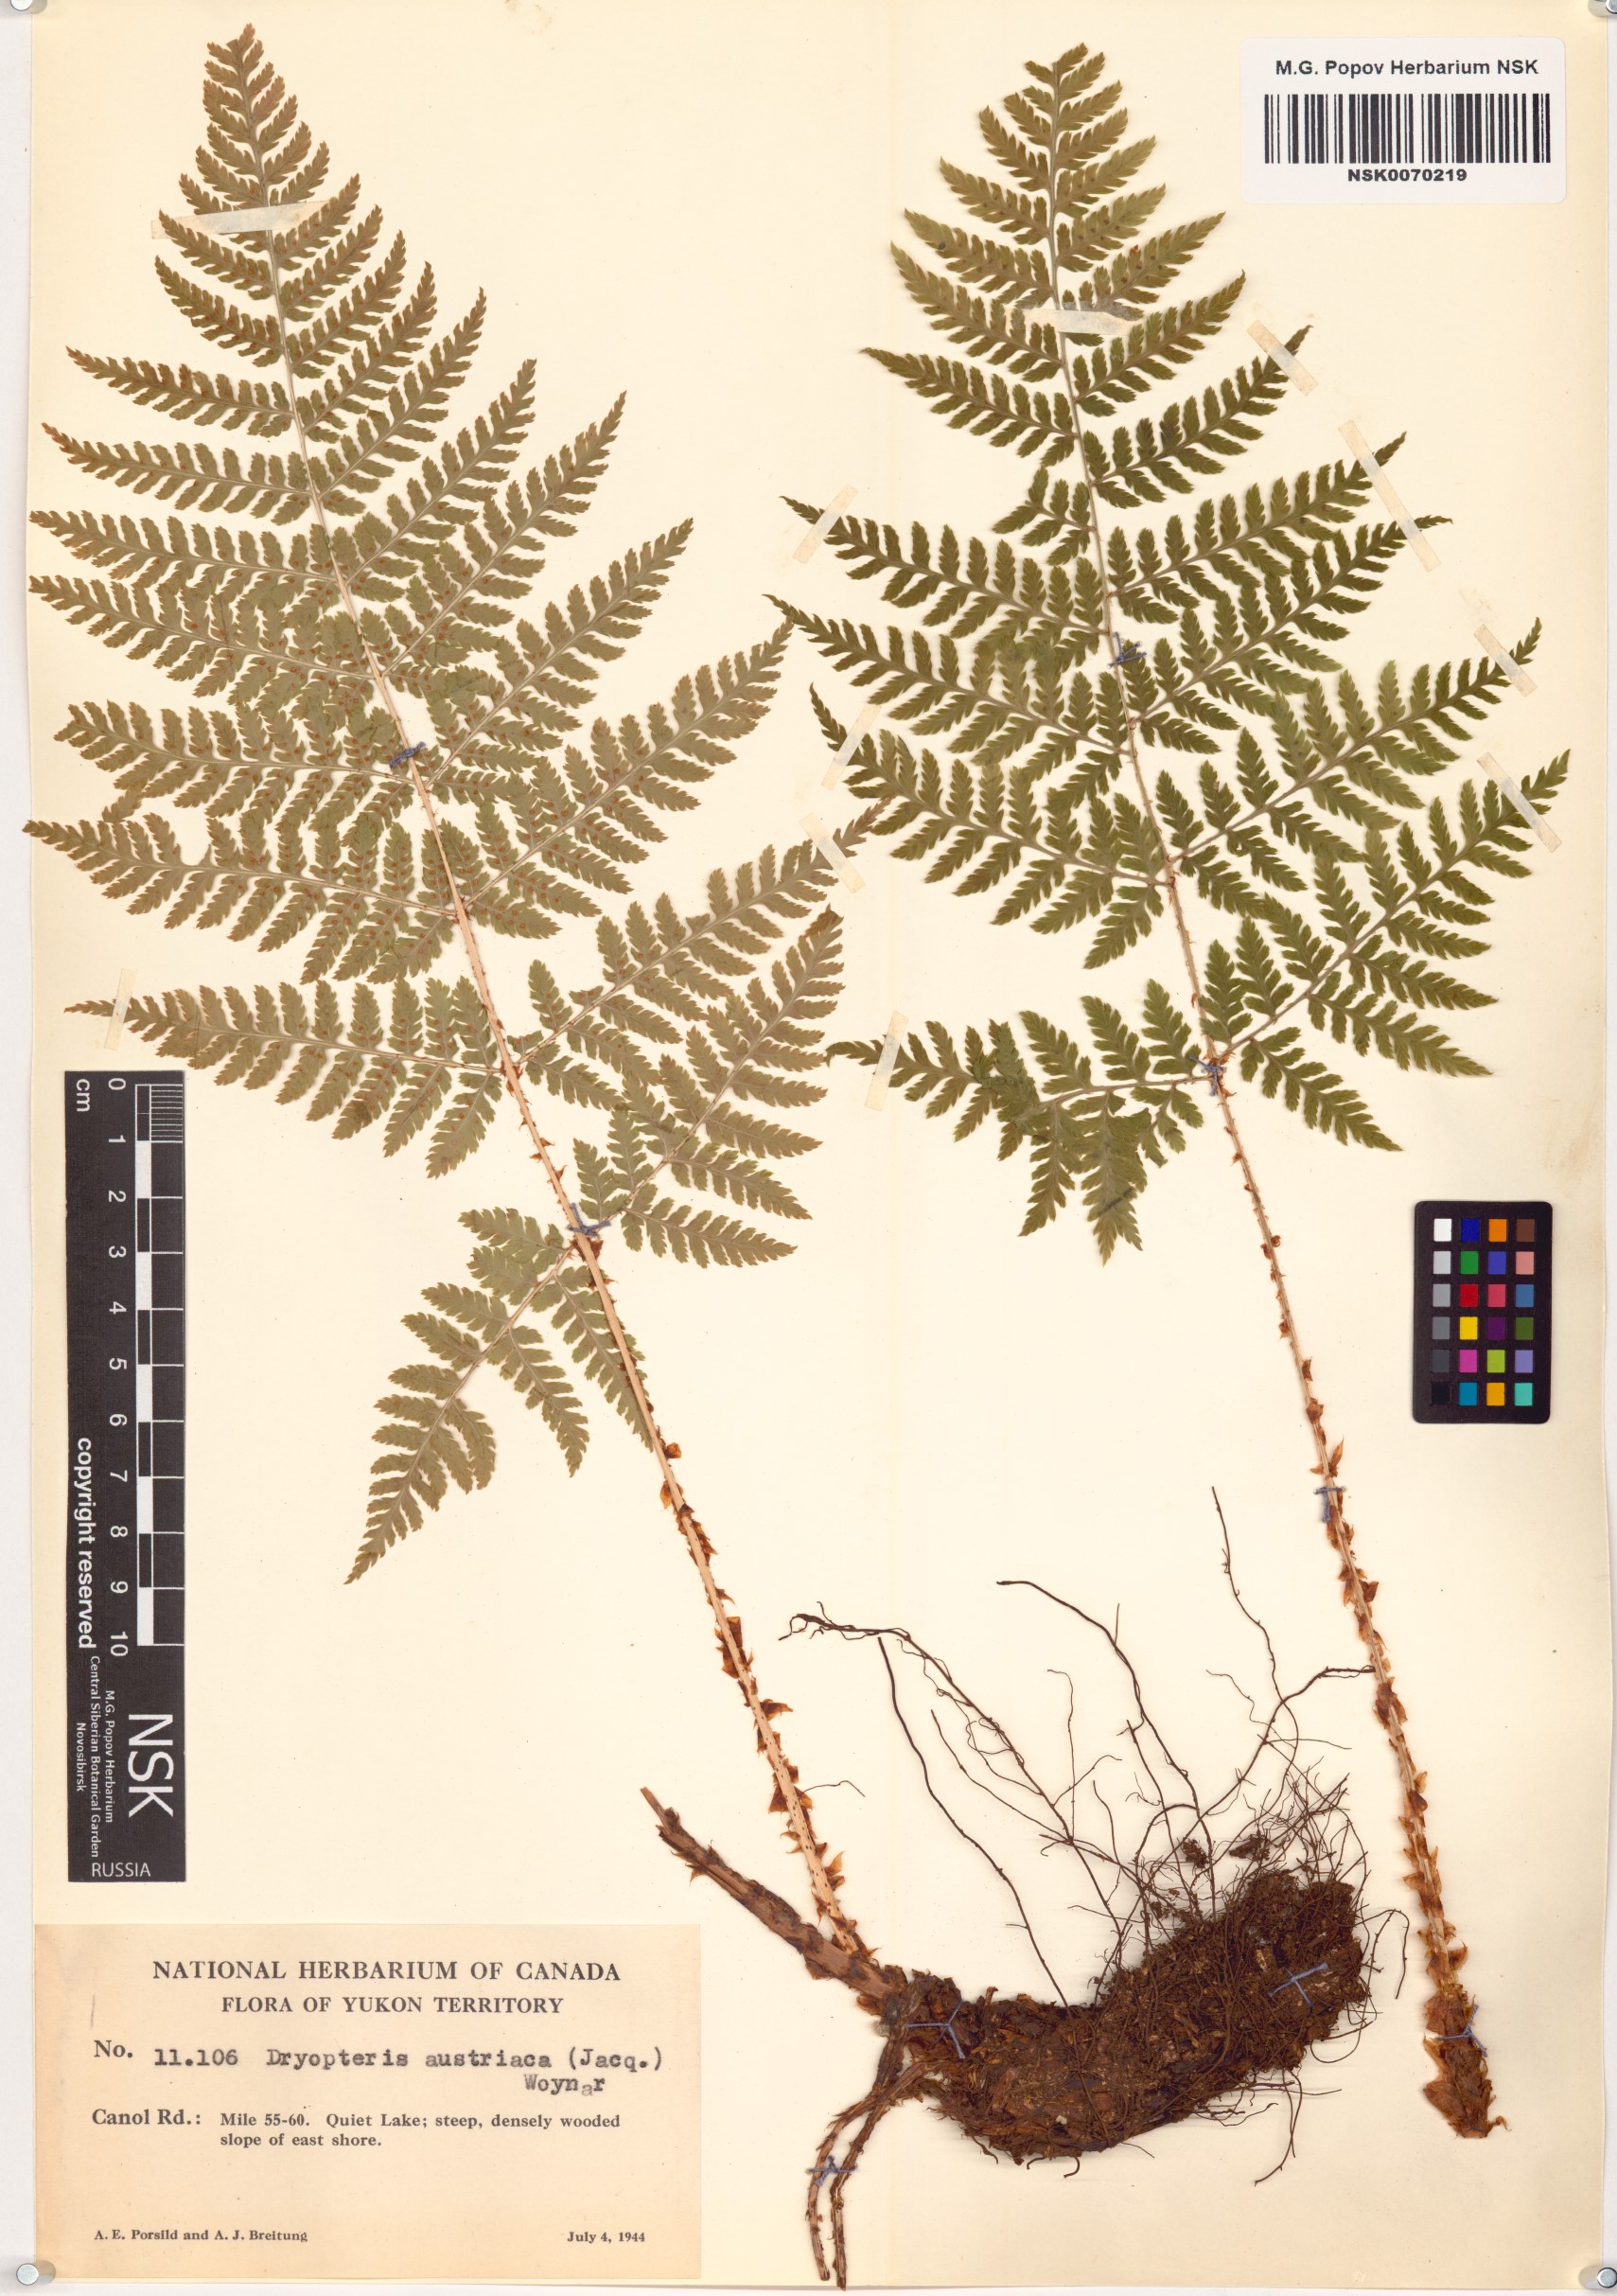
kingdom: Plantae
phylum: Tracheophyta
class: Polypodiopsida
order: Polypodiales
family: Dryopteridaceae
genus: Dryopteris
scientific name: Dryopteris dilatata
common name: Broad buckler-fern
